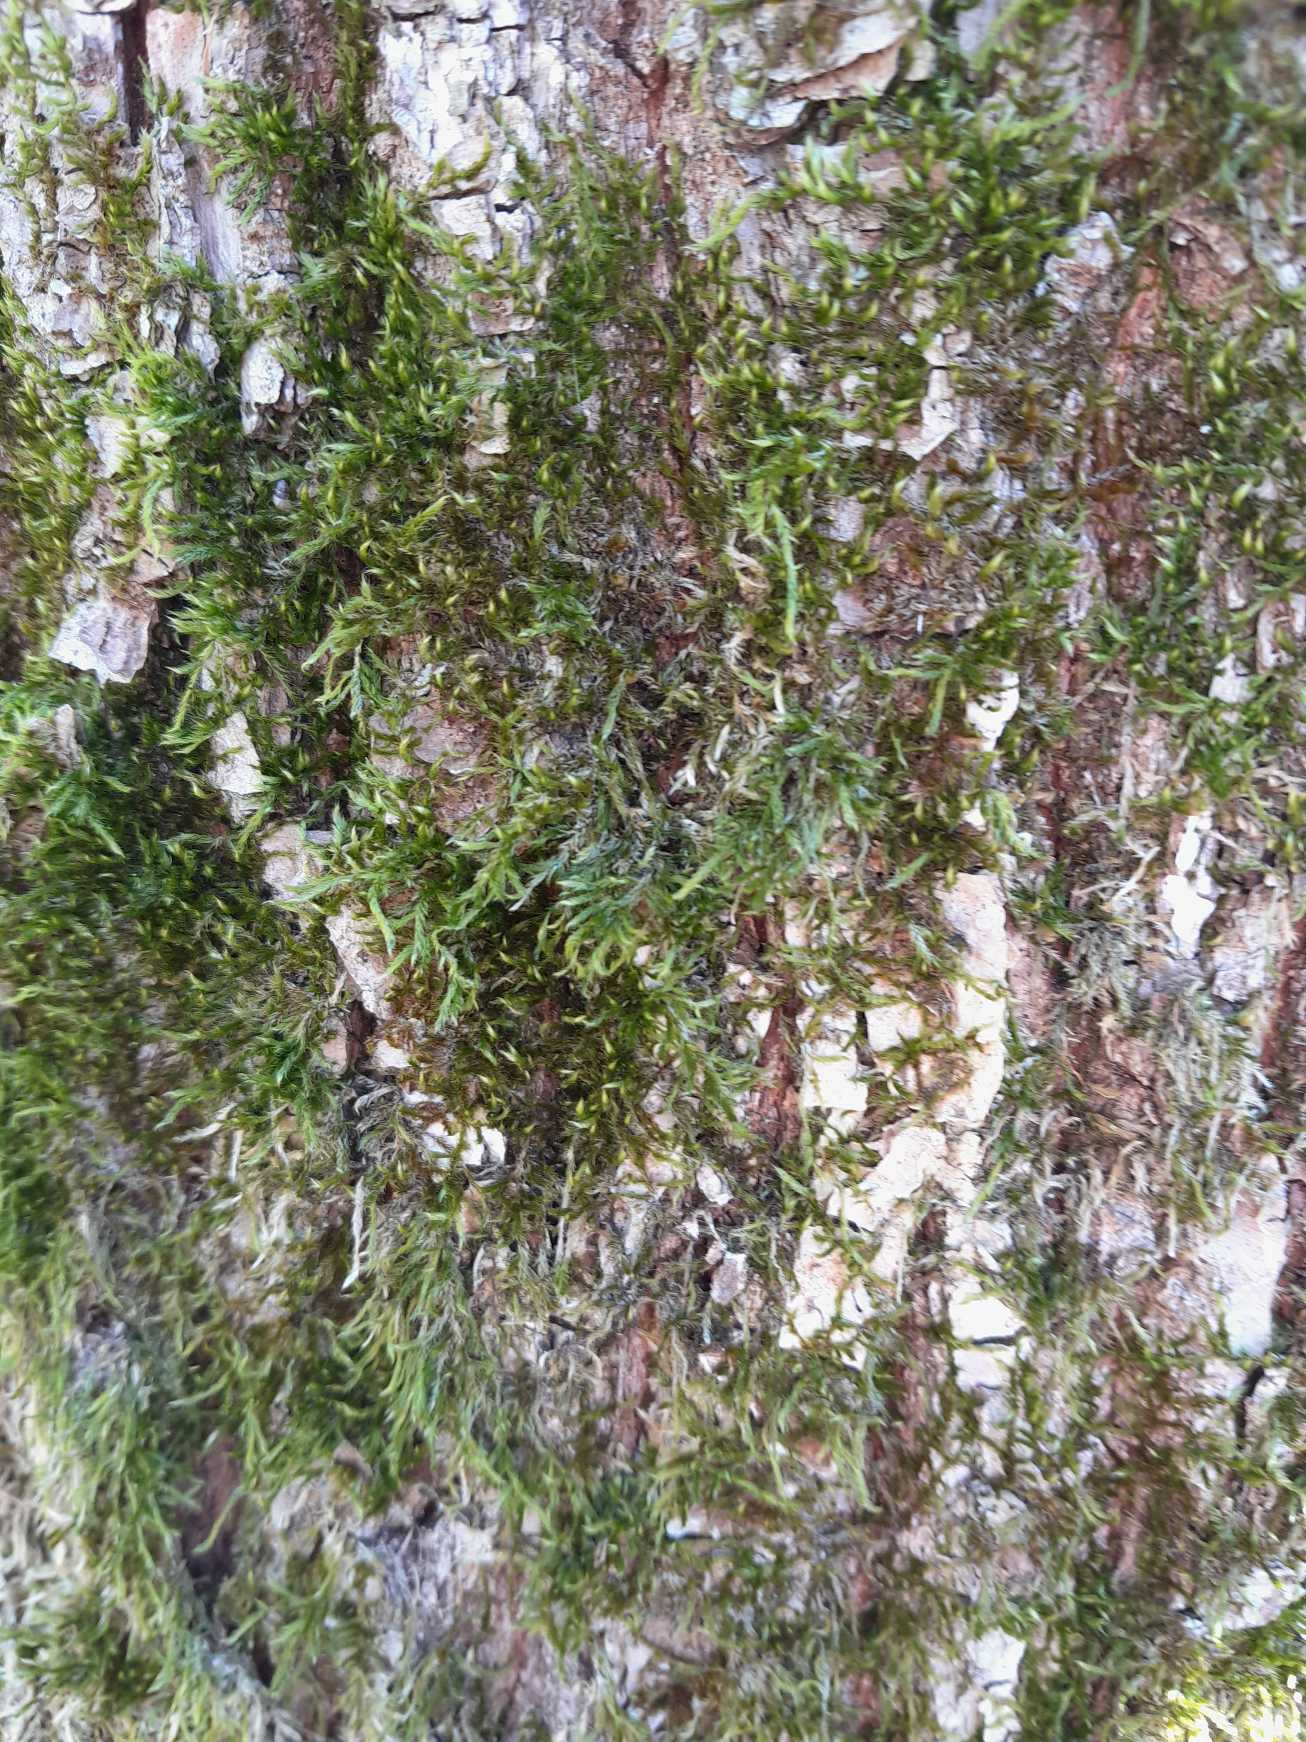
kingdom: Plantae
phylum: Bryophyta
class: Bryopsida
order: Hypnales
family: Hypnaceae
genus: Hypnum
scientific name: Hypnum
